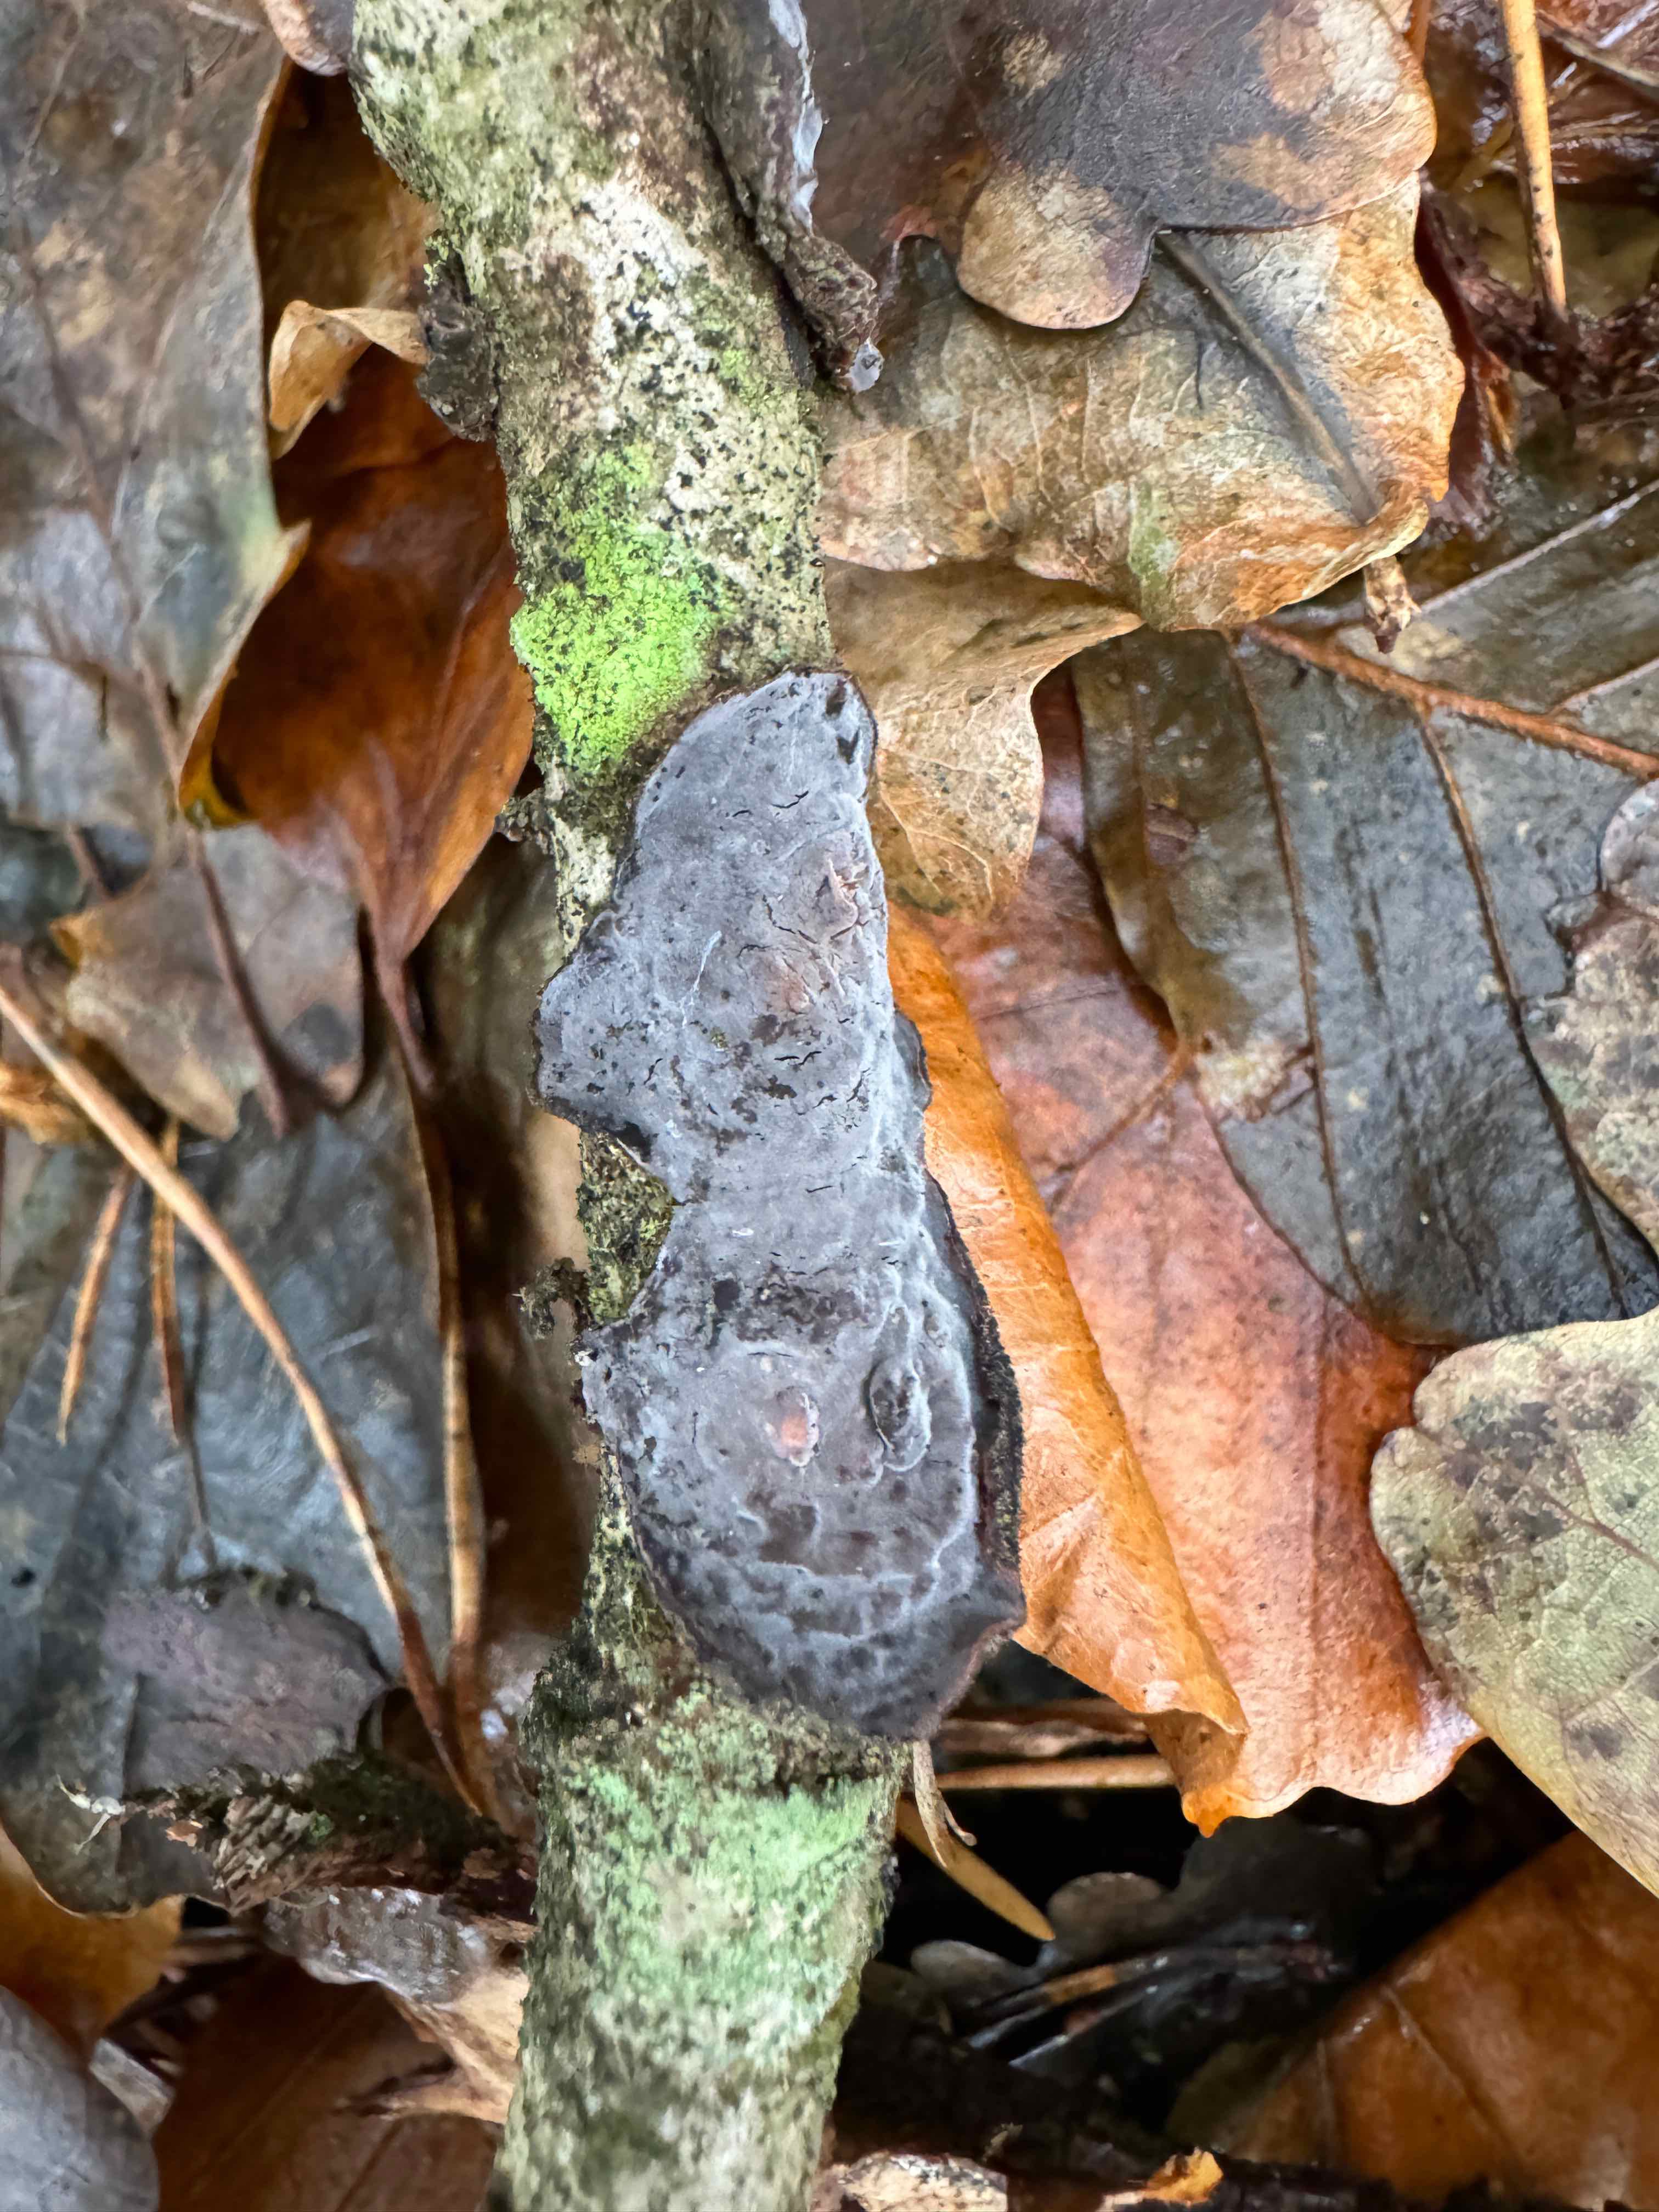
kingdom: Fungi
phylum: Basidiomycota
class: Agaricomycetes
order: Russulales
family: Peniophoraceae
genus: Peniophora
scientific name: Peniophora quercina
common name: ege-voksskind
